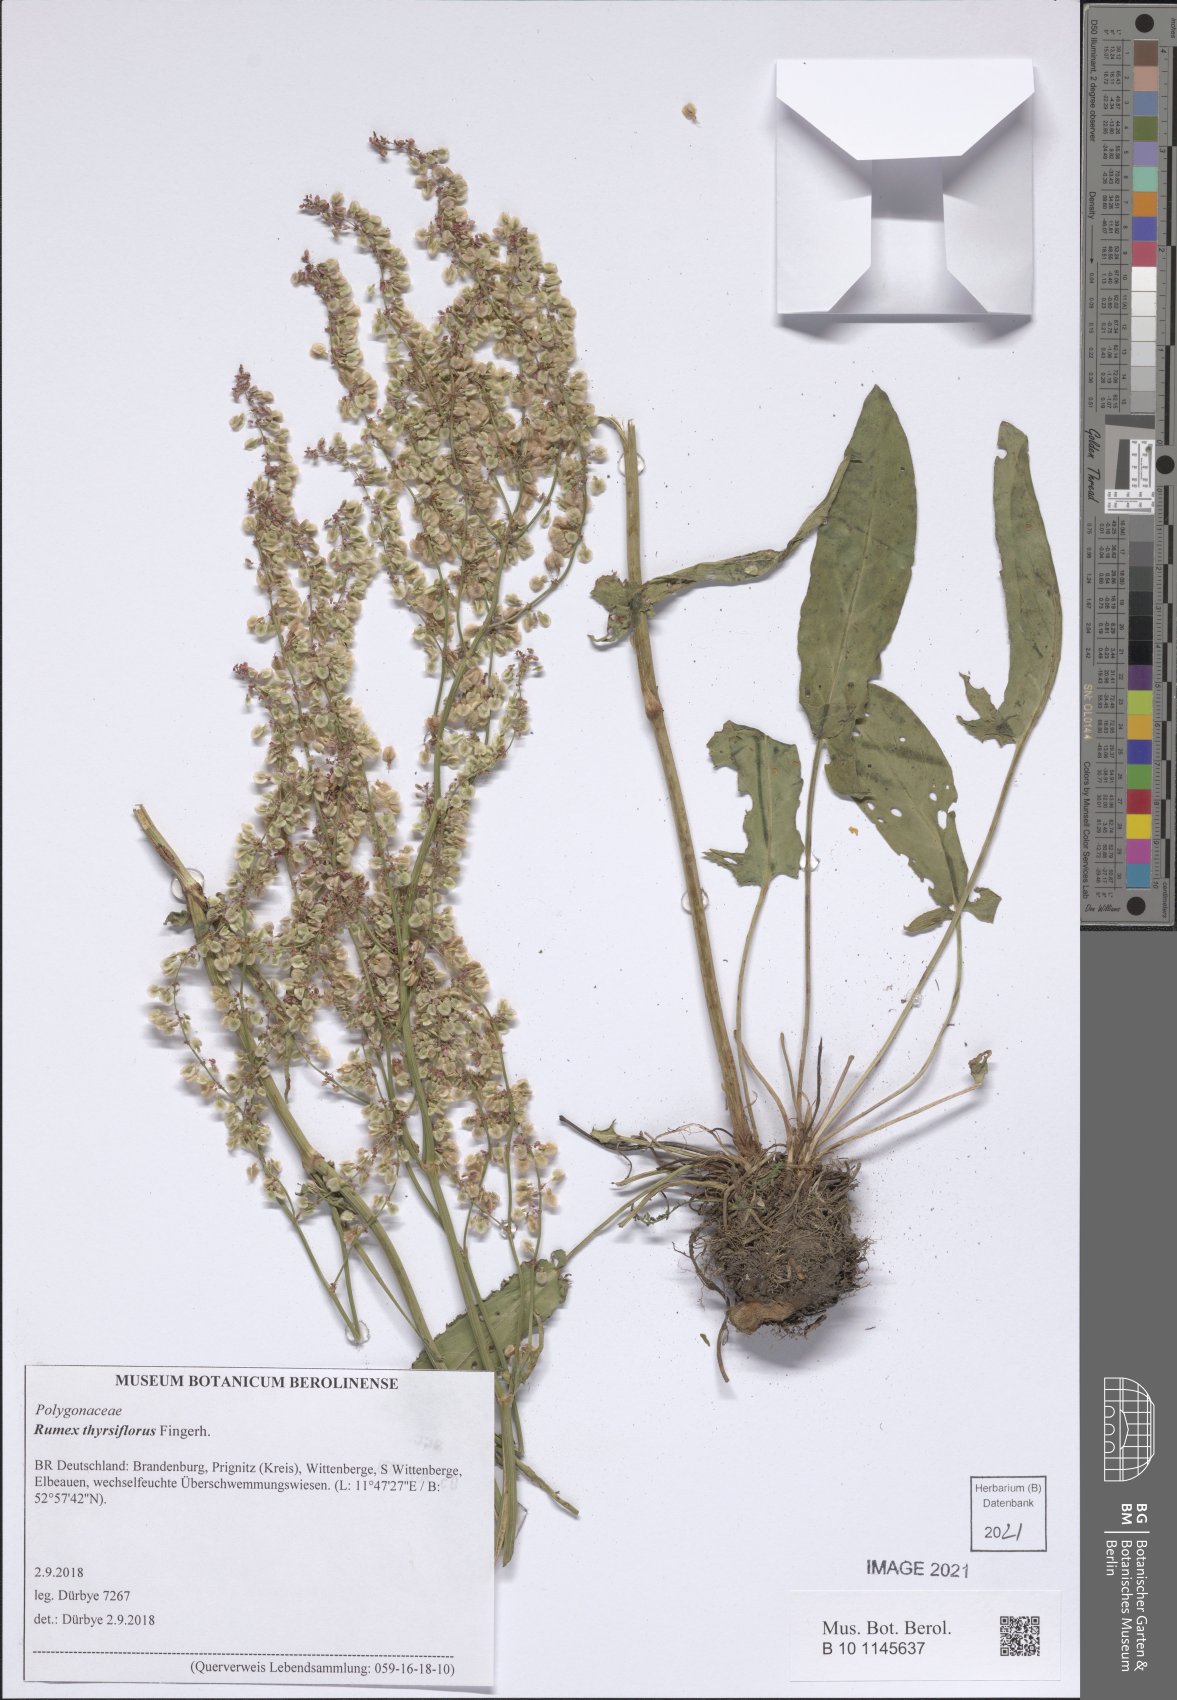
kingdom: Plantae
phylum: Tracheophyta
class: Magnoliopsida
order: Caryophyllales
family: Polygonaceae
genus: Rumex
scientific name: Rumex thyrsiflorus
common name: Garden sorrel
